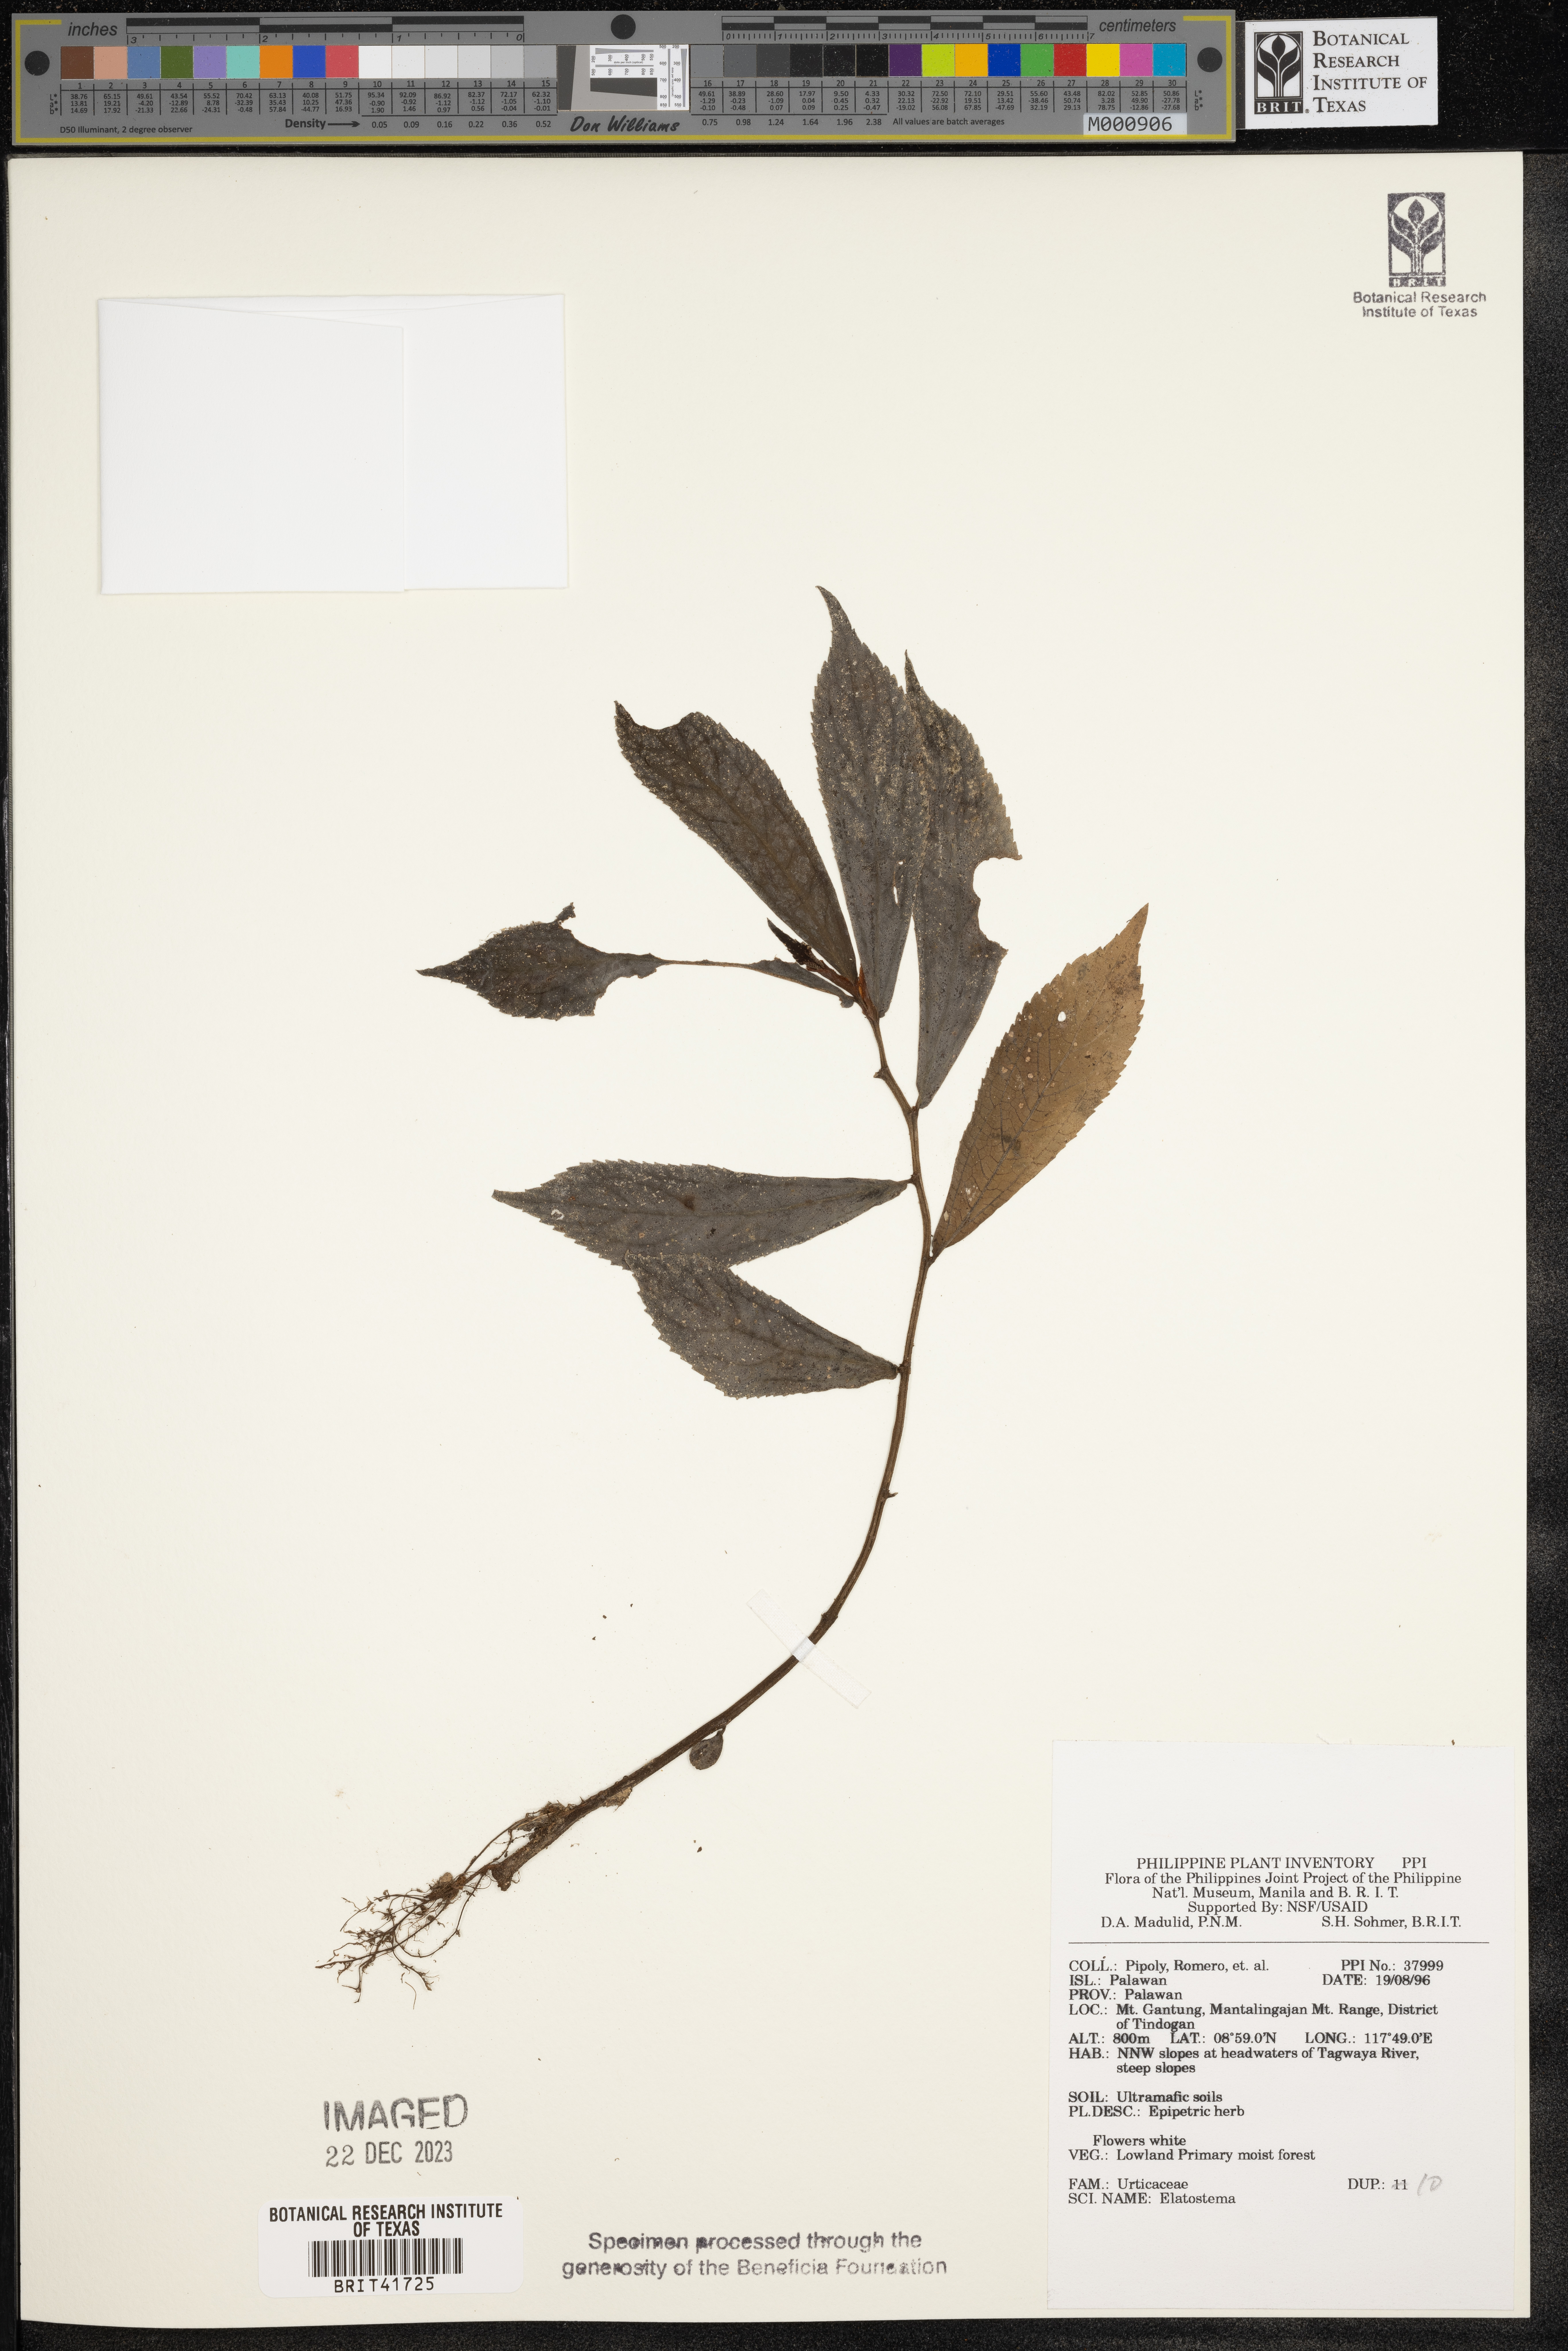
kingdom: Plantae
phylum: Tracheophyta
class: Magnoliopsida
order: Rosales
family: Urticaceae
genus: Elatostema
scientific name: Elatostema
